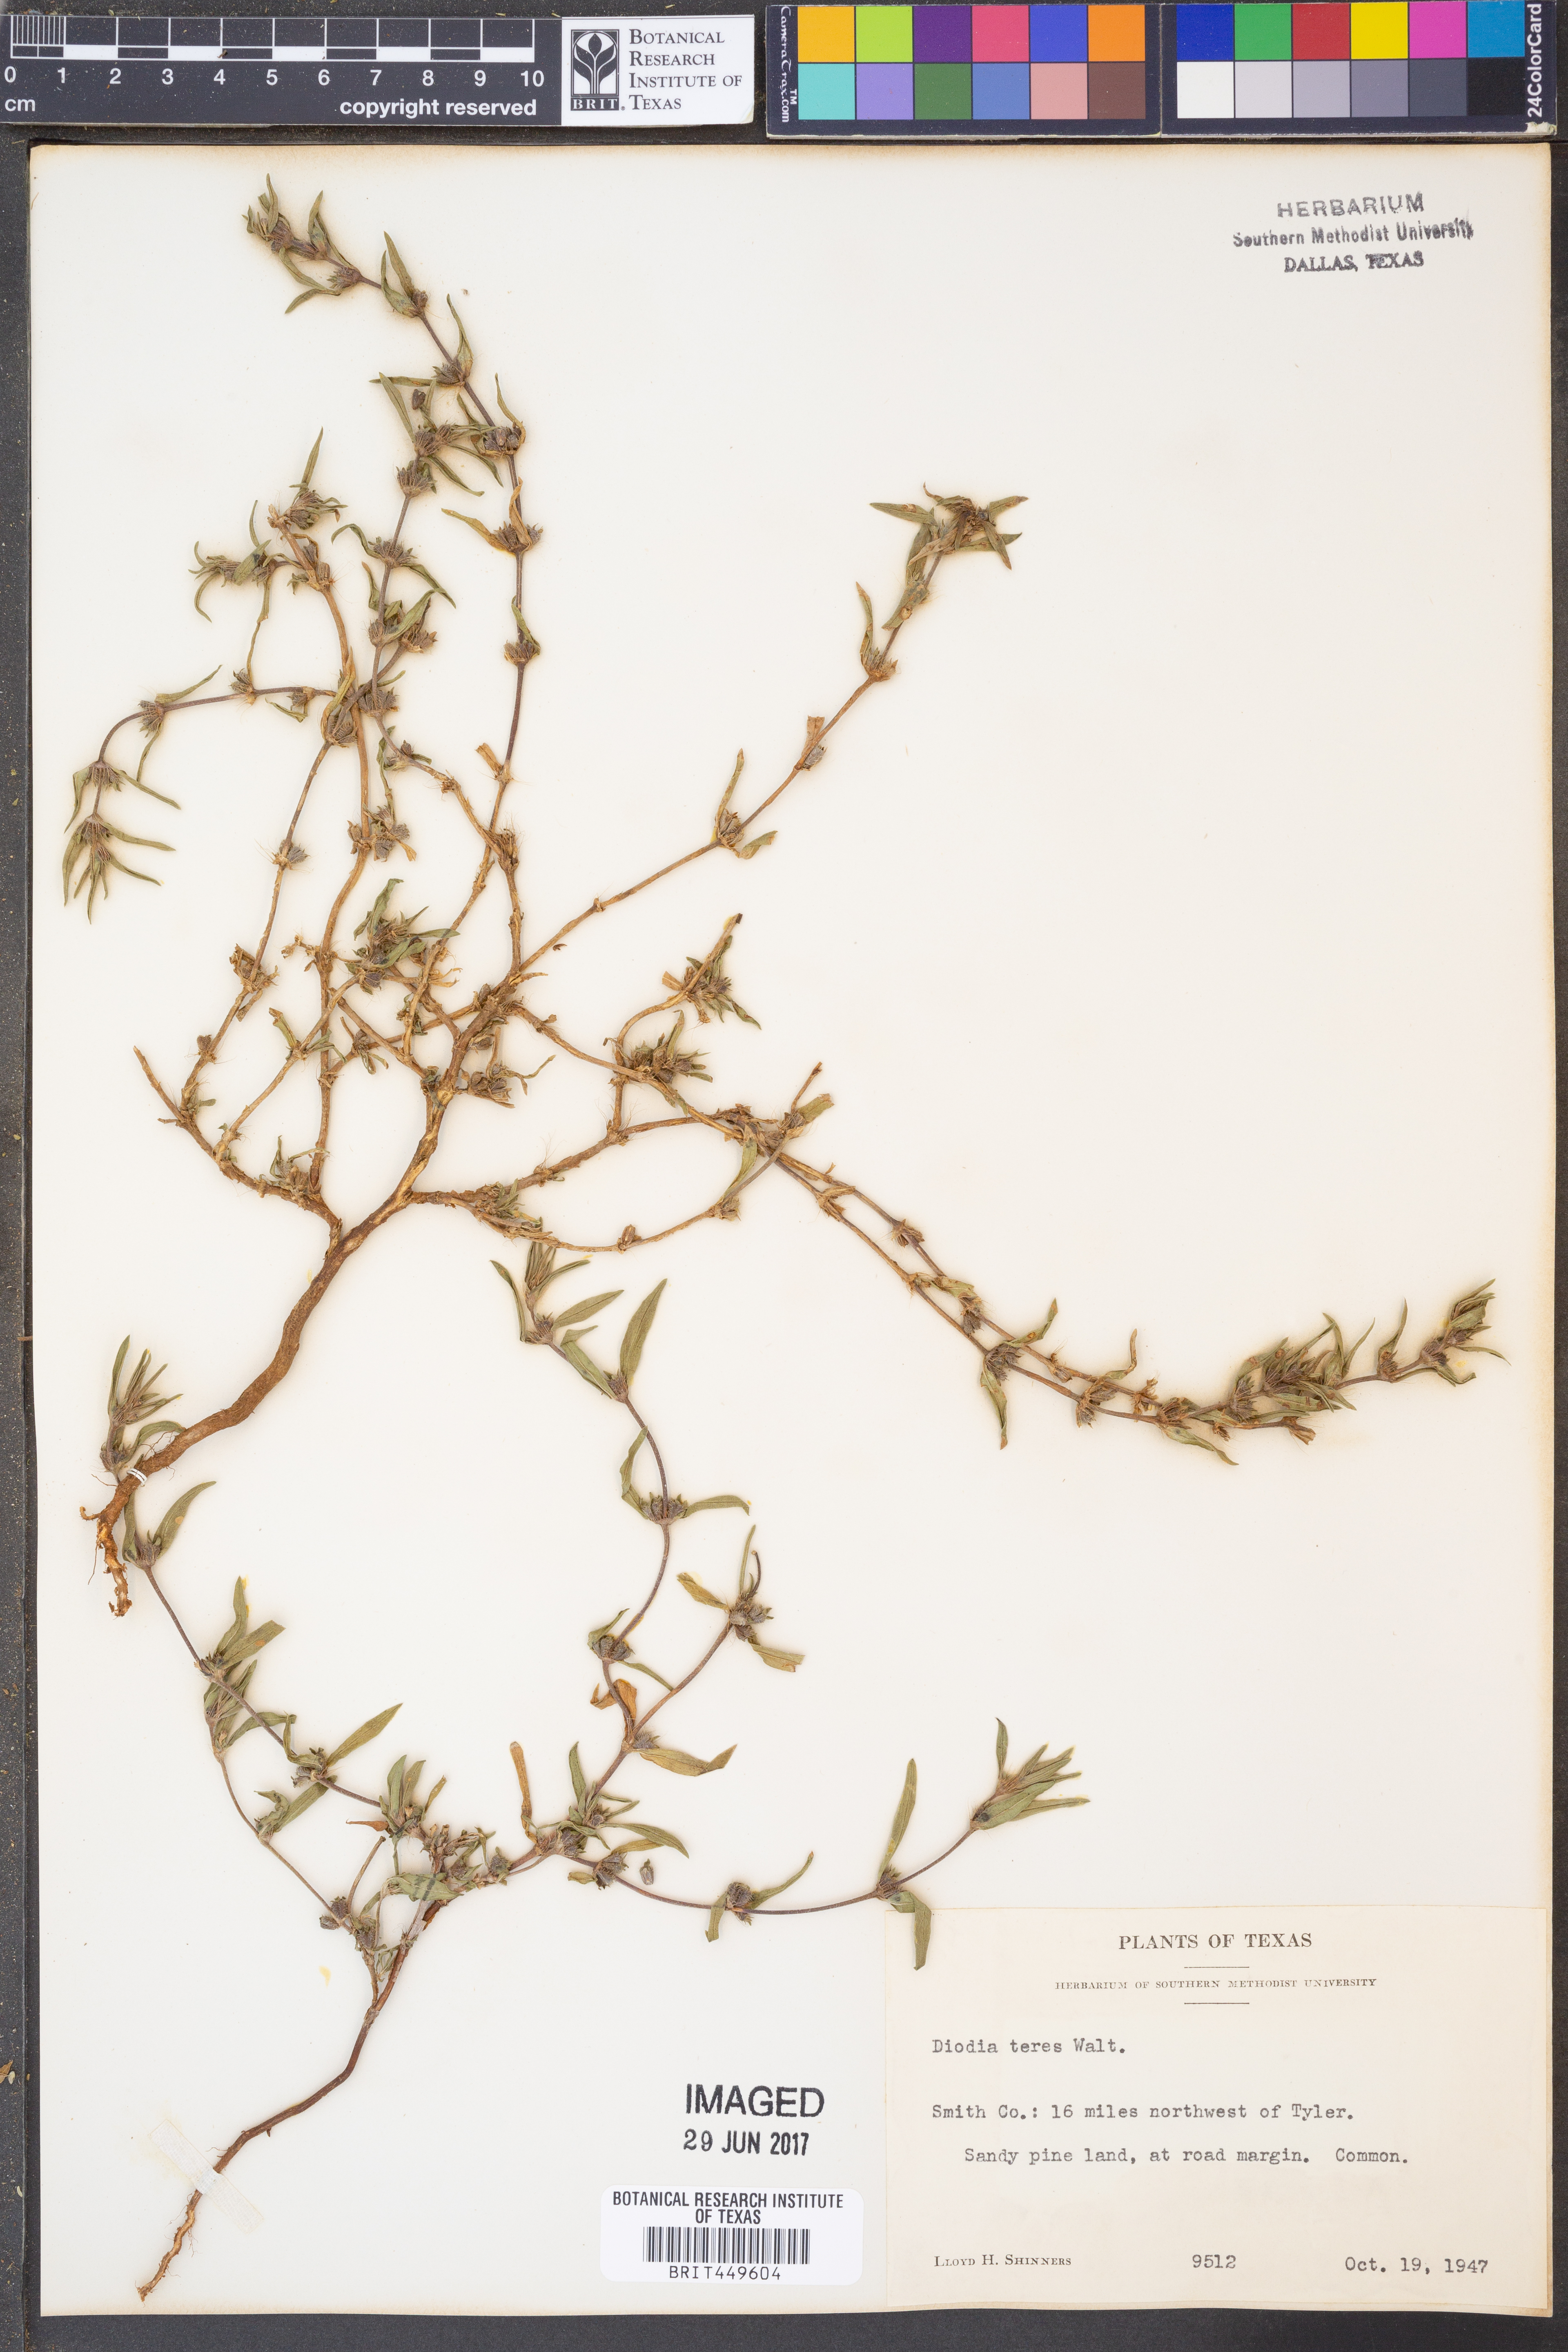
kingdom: Plantae
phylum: Tracheophyta
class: Magnoliopsida
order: Gentianales
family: Rubiaceae
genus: Hexasepalum
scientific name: Hexasepalum teres
